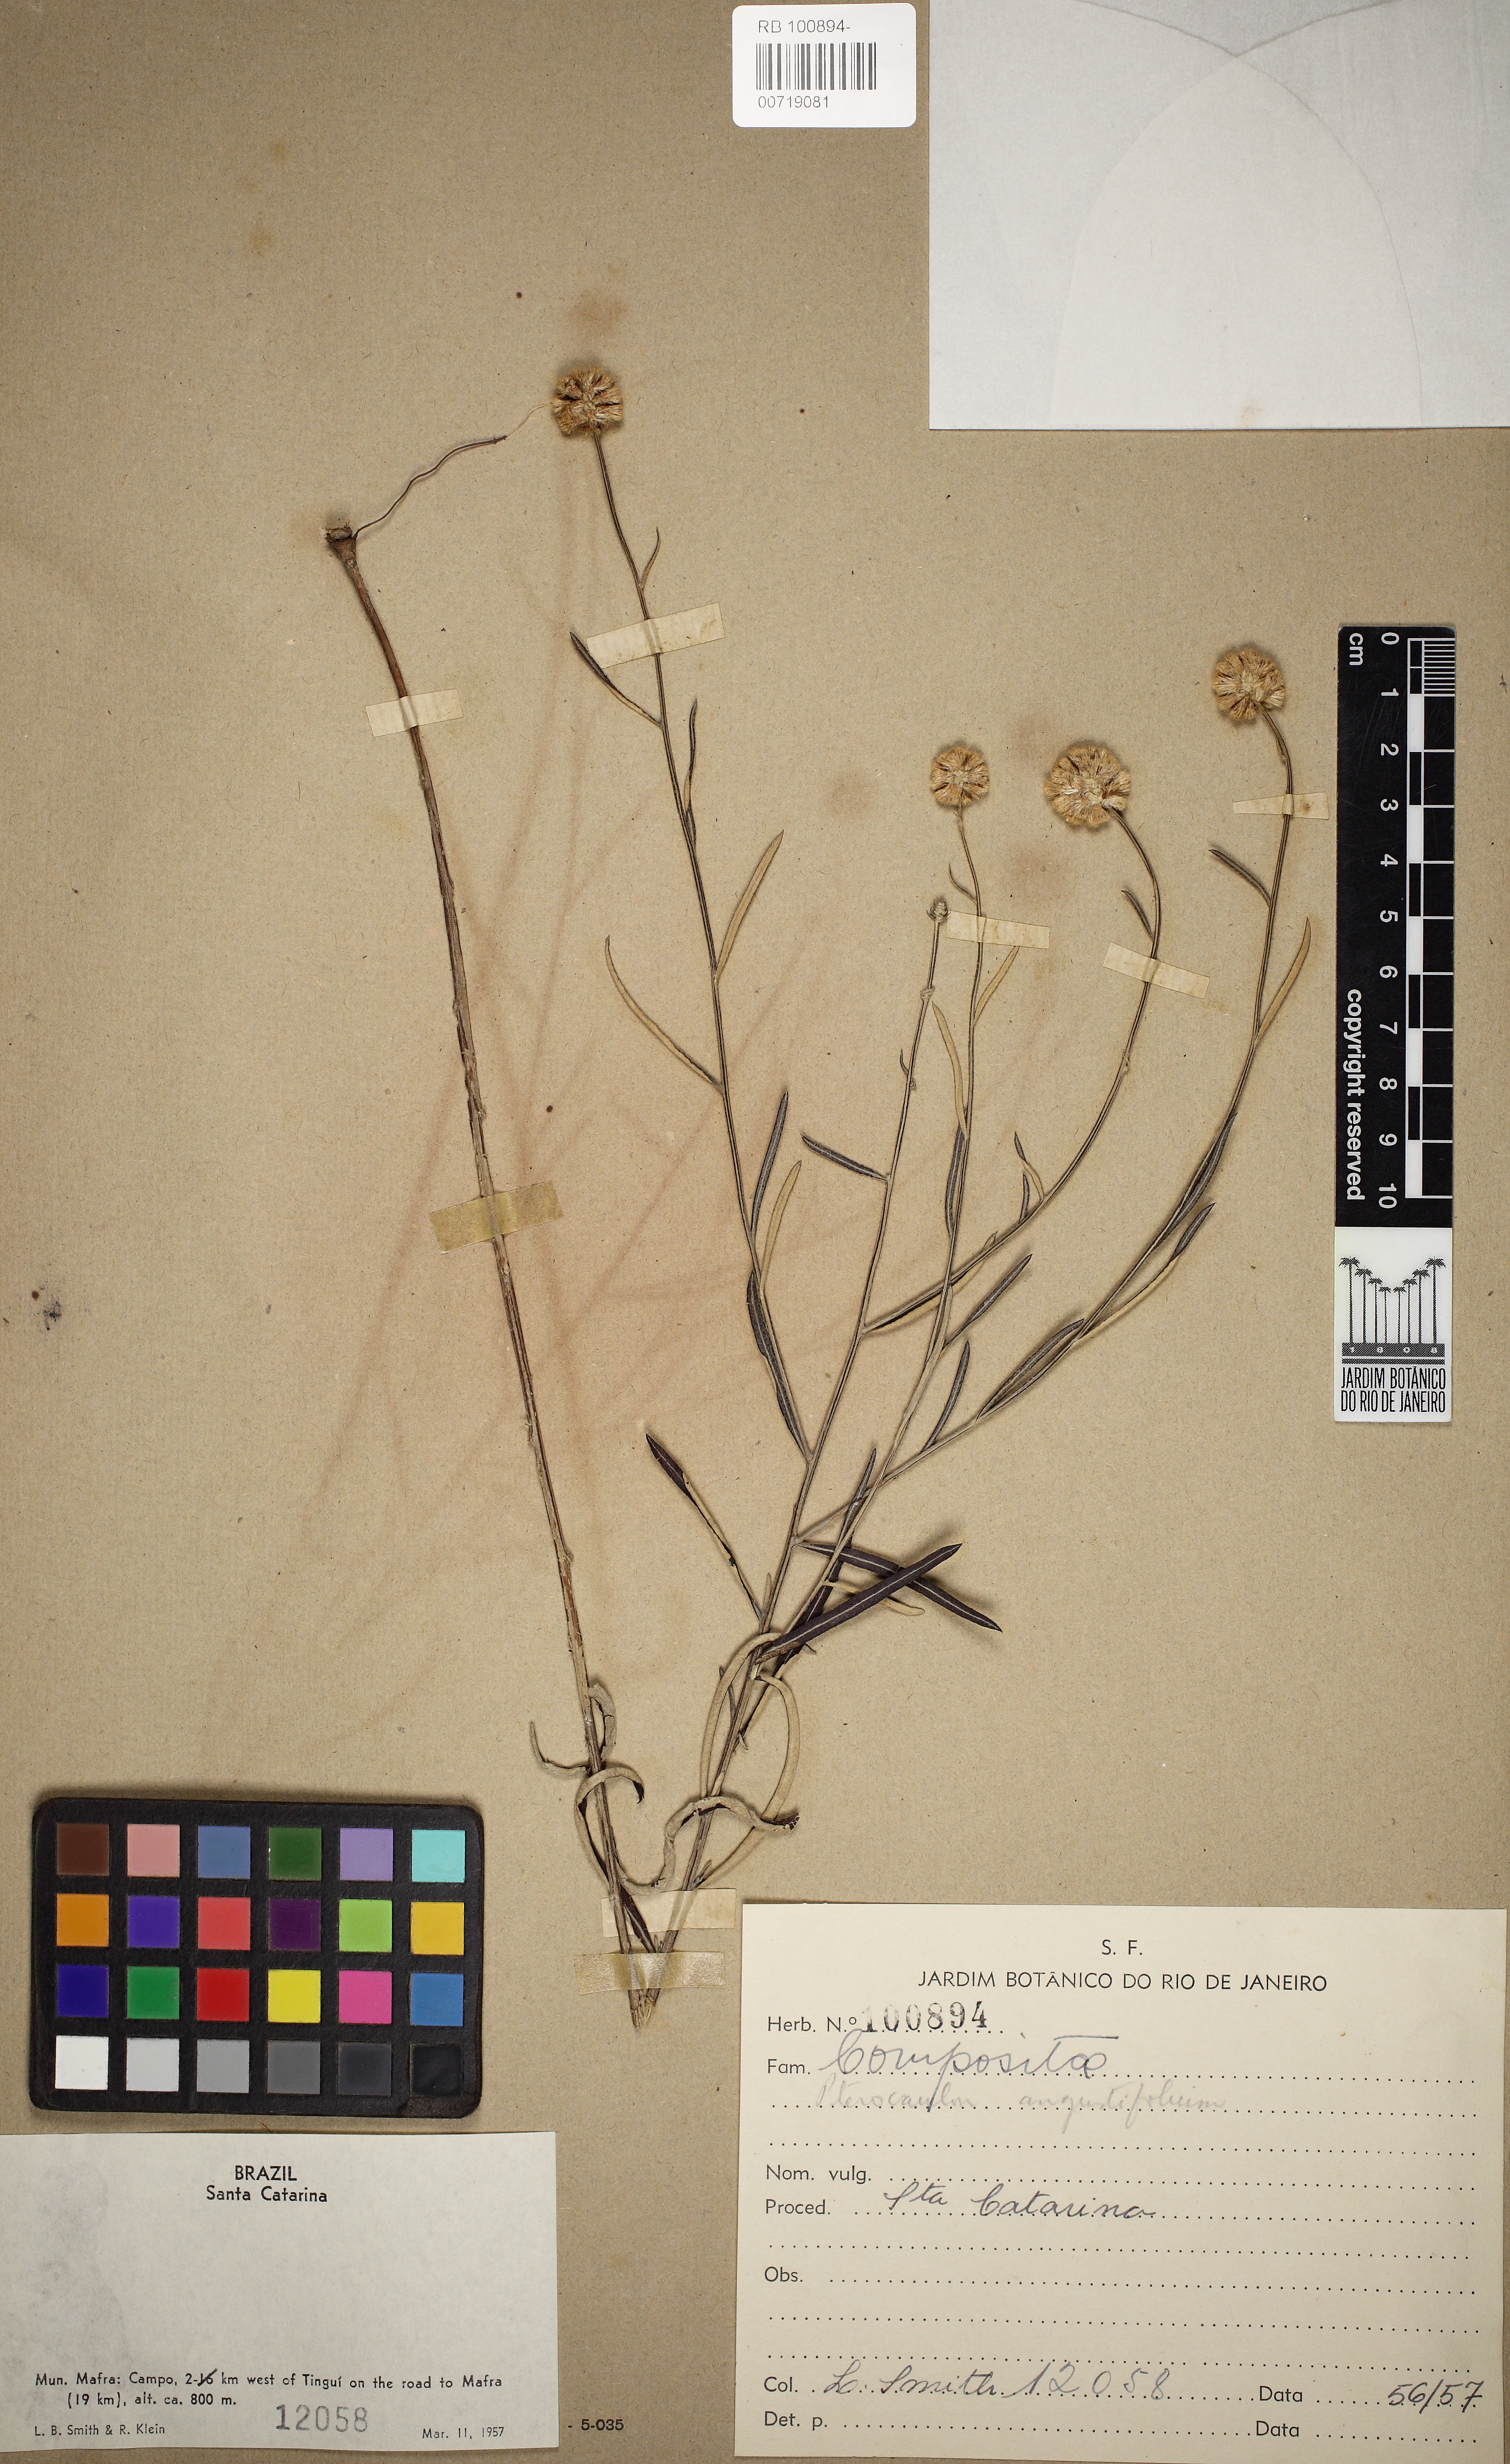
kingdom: Plantae
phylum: Tracheophyta
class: Magnoliopsida
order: Asterales
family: Asteraceae
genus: Pterocaulon
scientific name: Pterocaulon angustifolium
